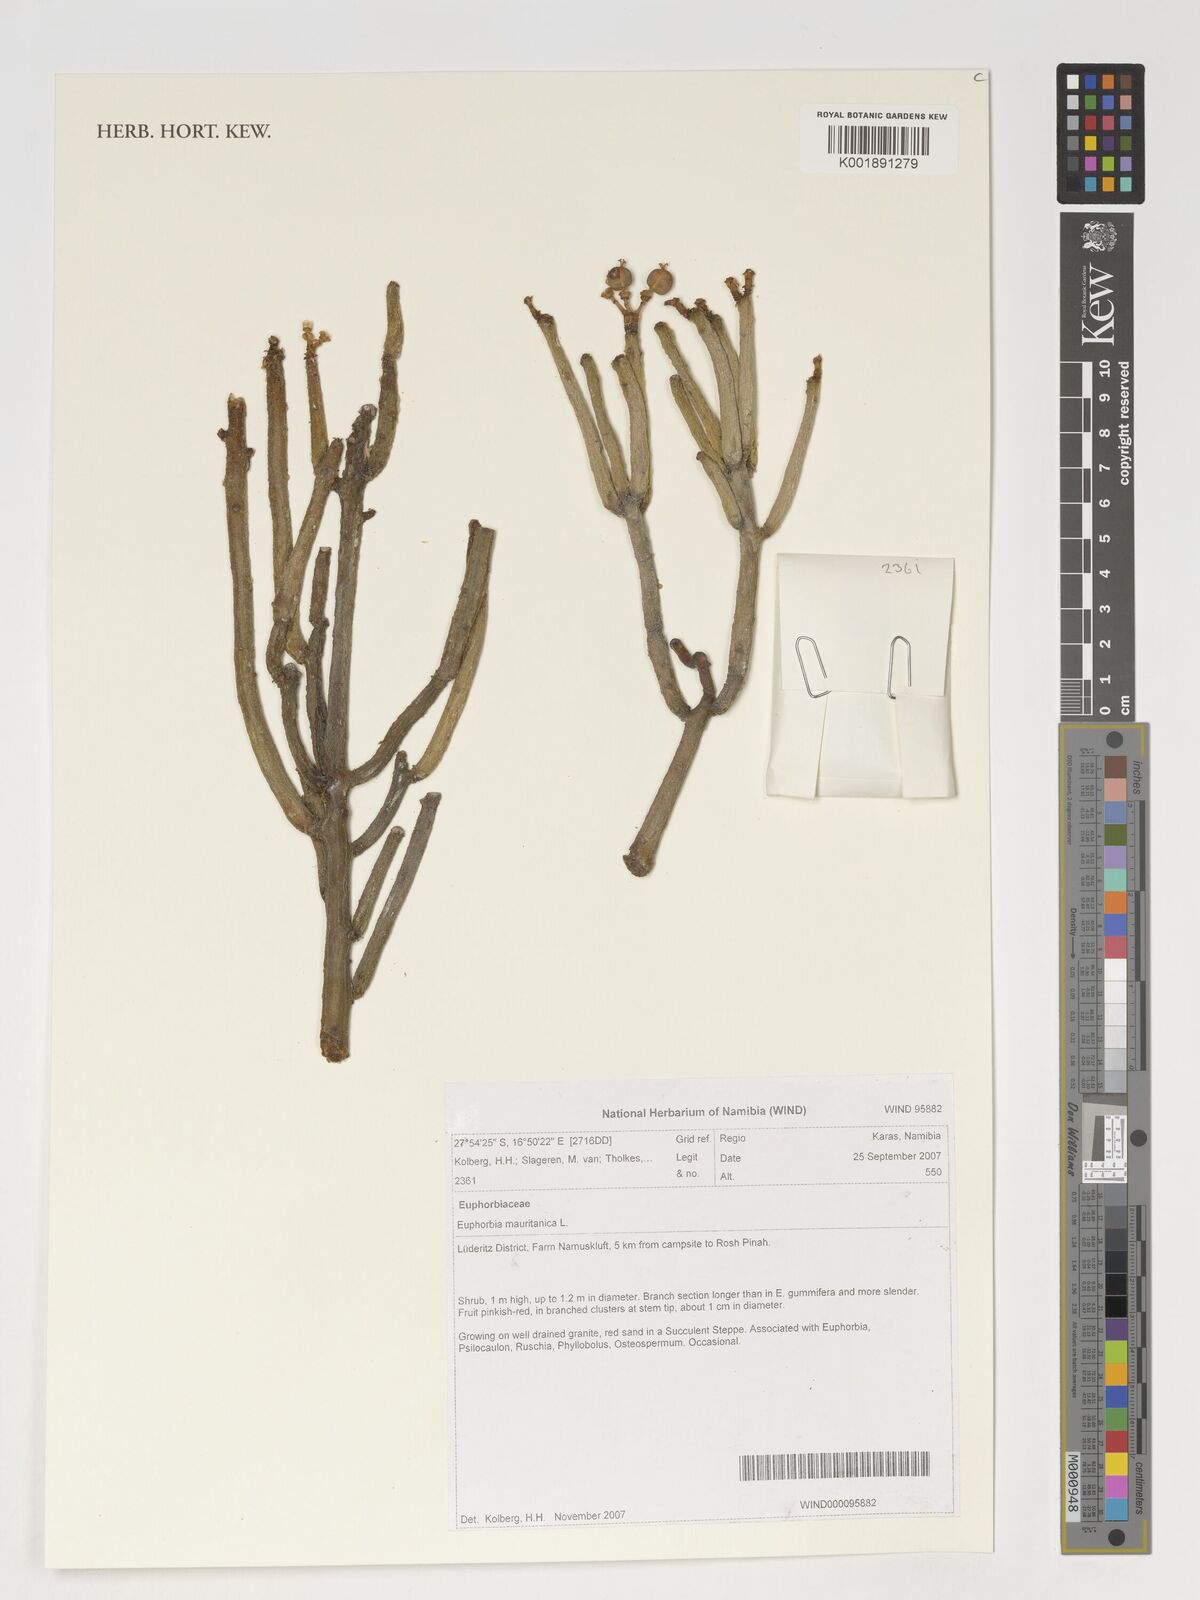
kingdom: Plantae
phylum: Tracheophyta
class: Magnoliopsida
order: Malpighiales
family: Euphorbiaceae
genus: Euphorbia
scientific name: Euphorbia mauritanica
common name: Jackal's-food
